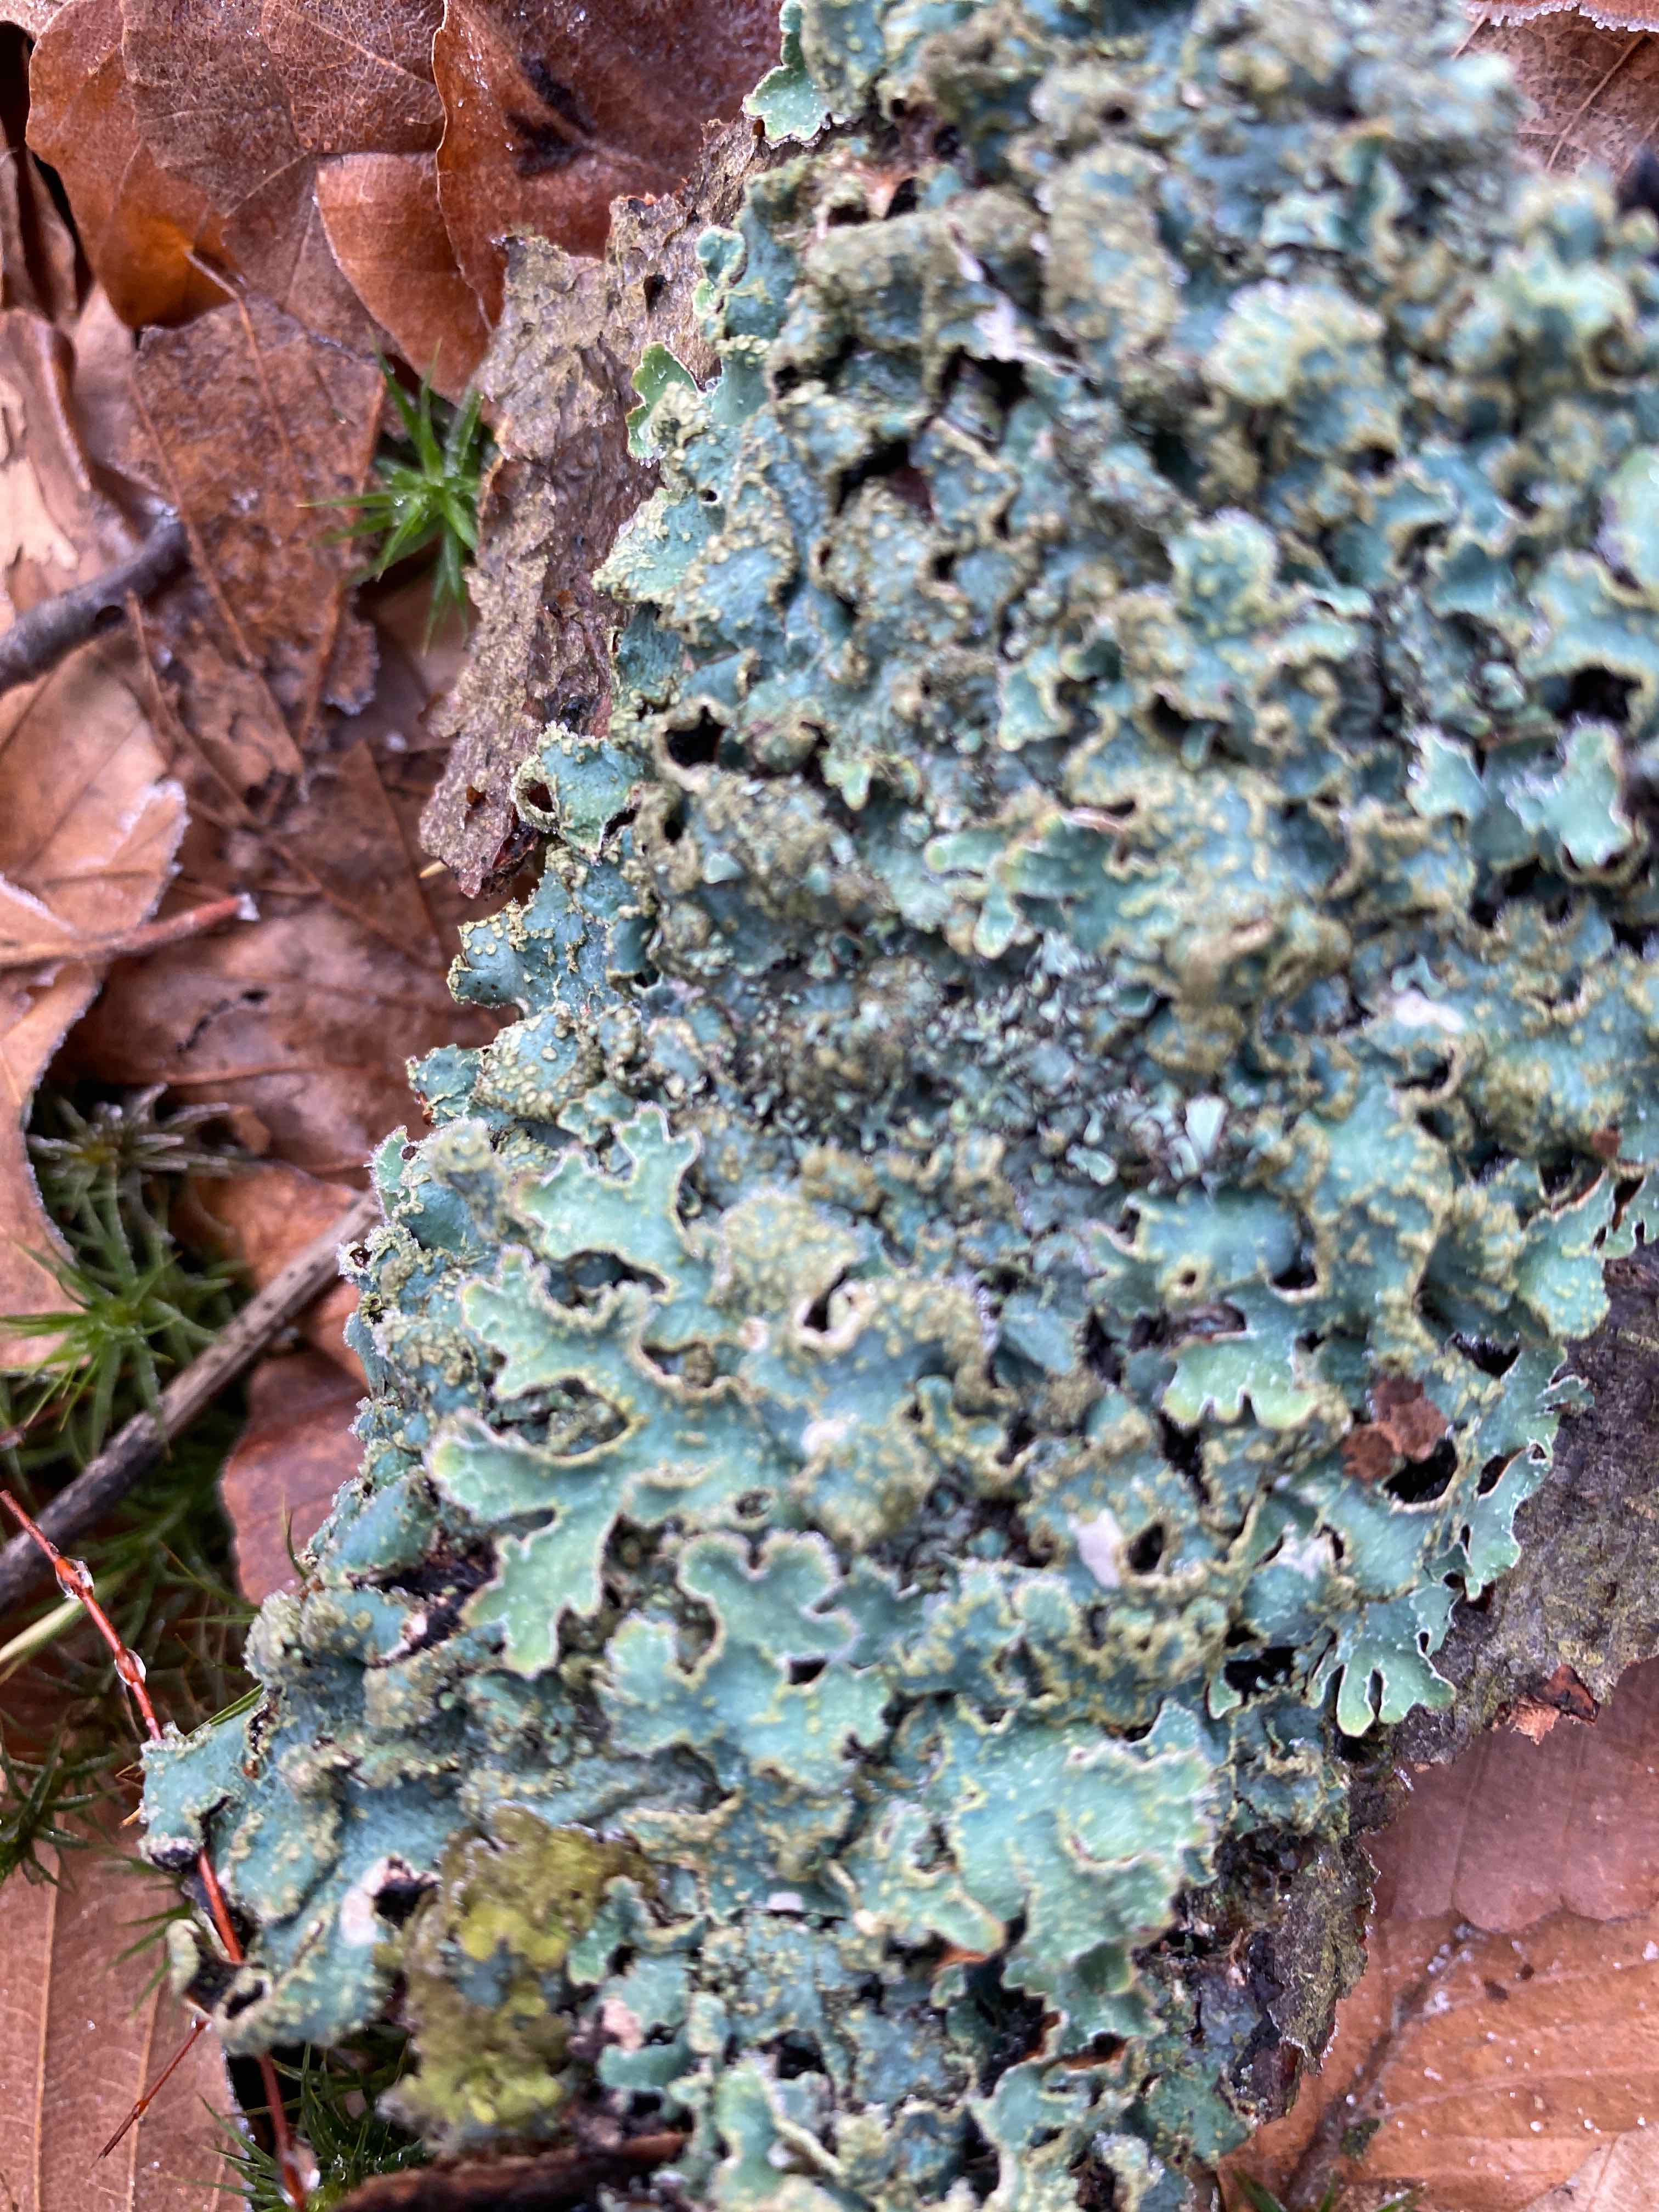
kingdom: Fungi
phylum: Ascomycota
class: Lecanoromycetes
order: Lecanorales
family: Parmeliaceae
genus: Parmelia
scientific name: Parmelia sulcata
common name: rynket skållav
